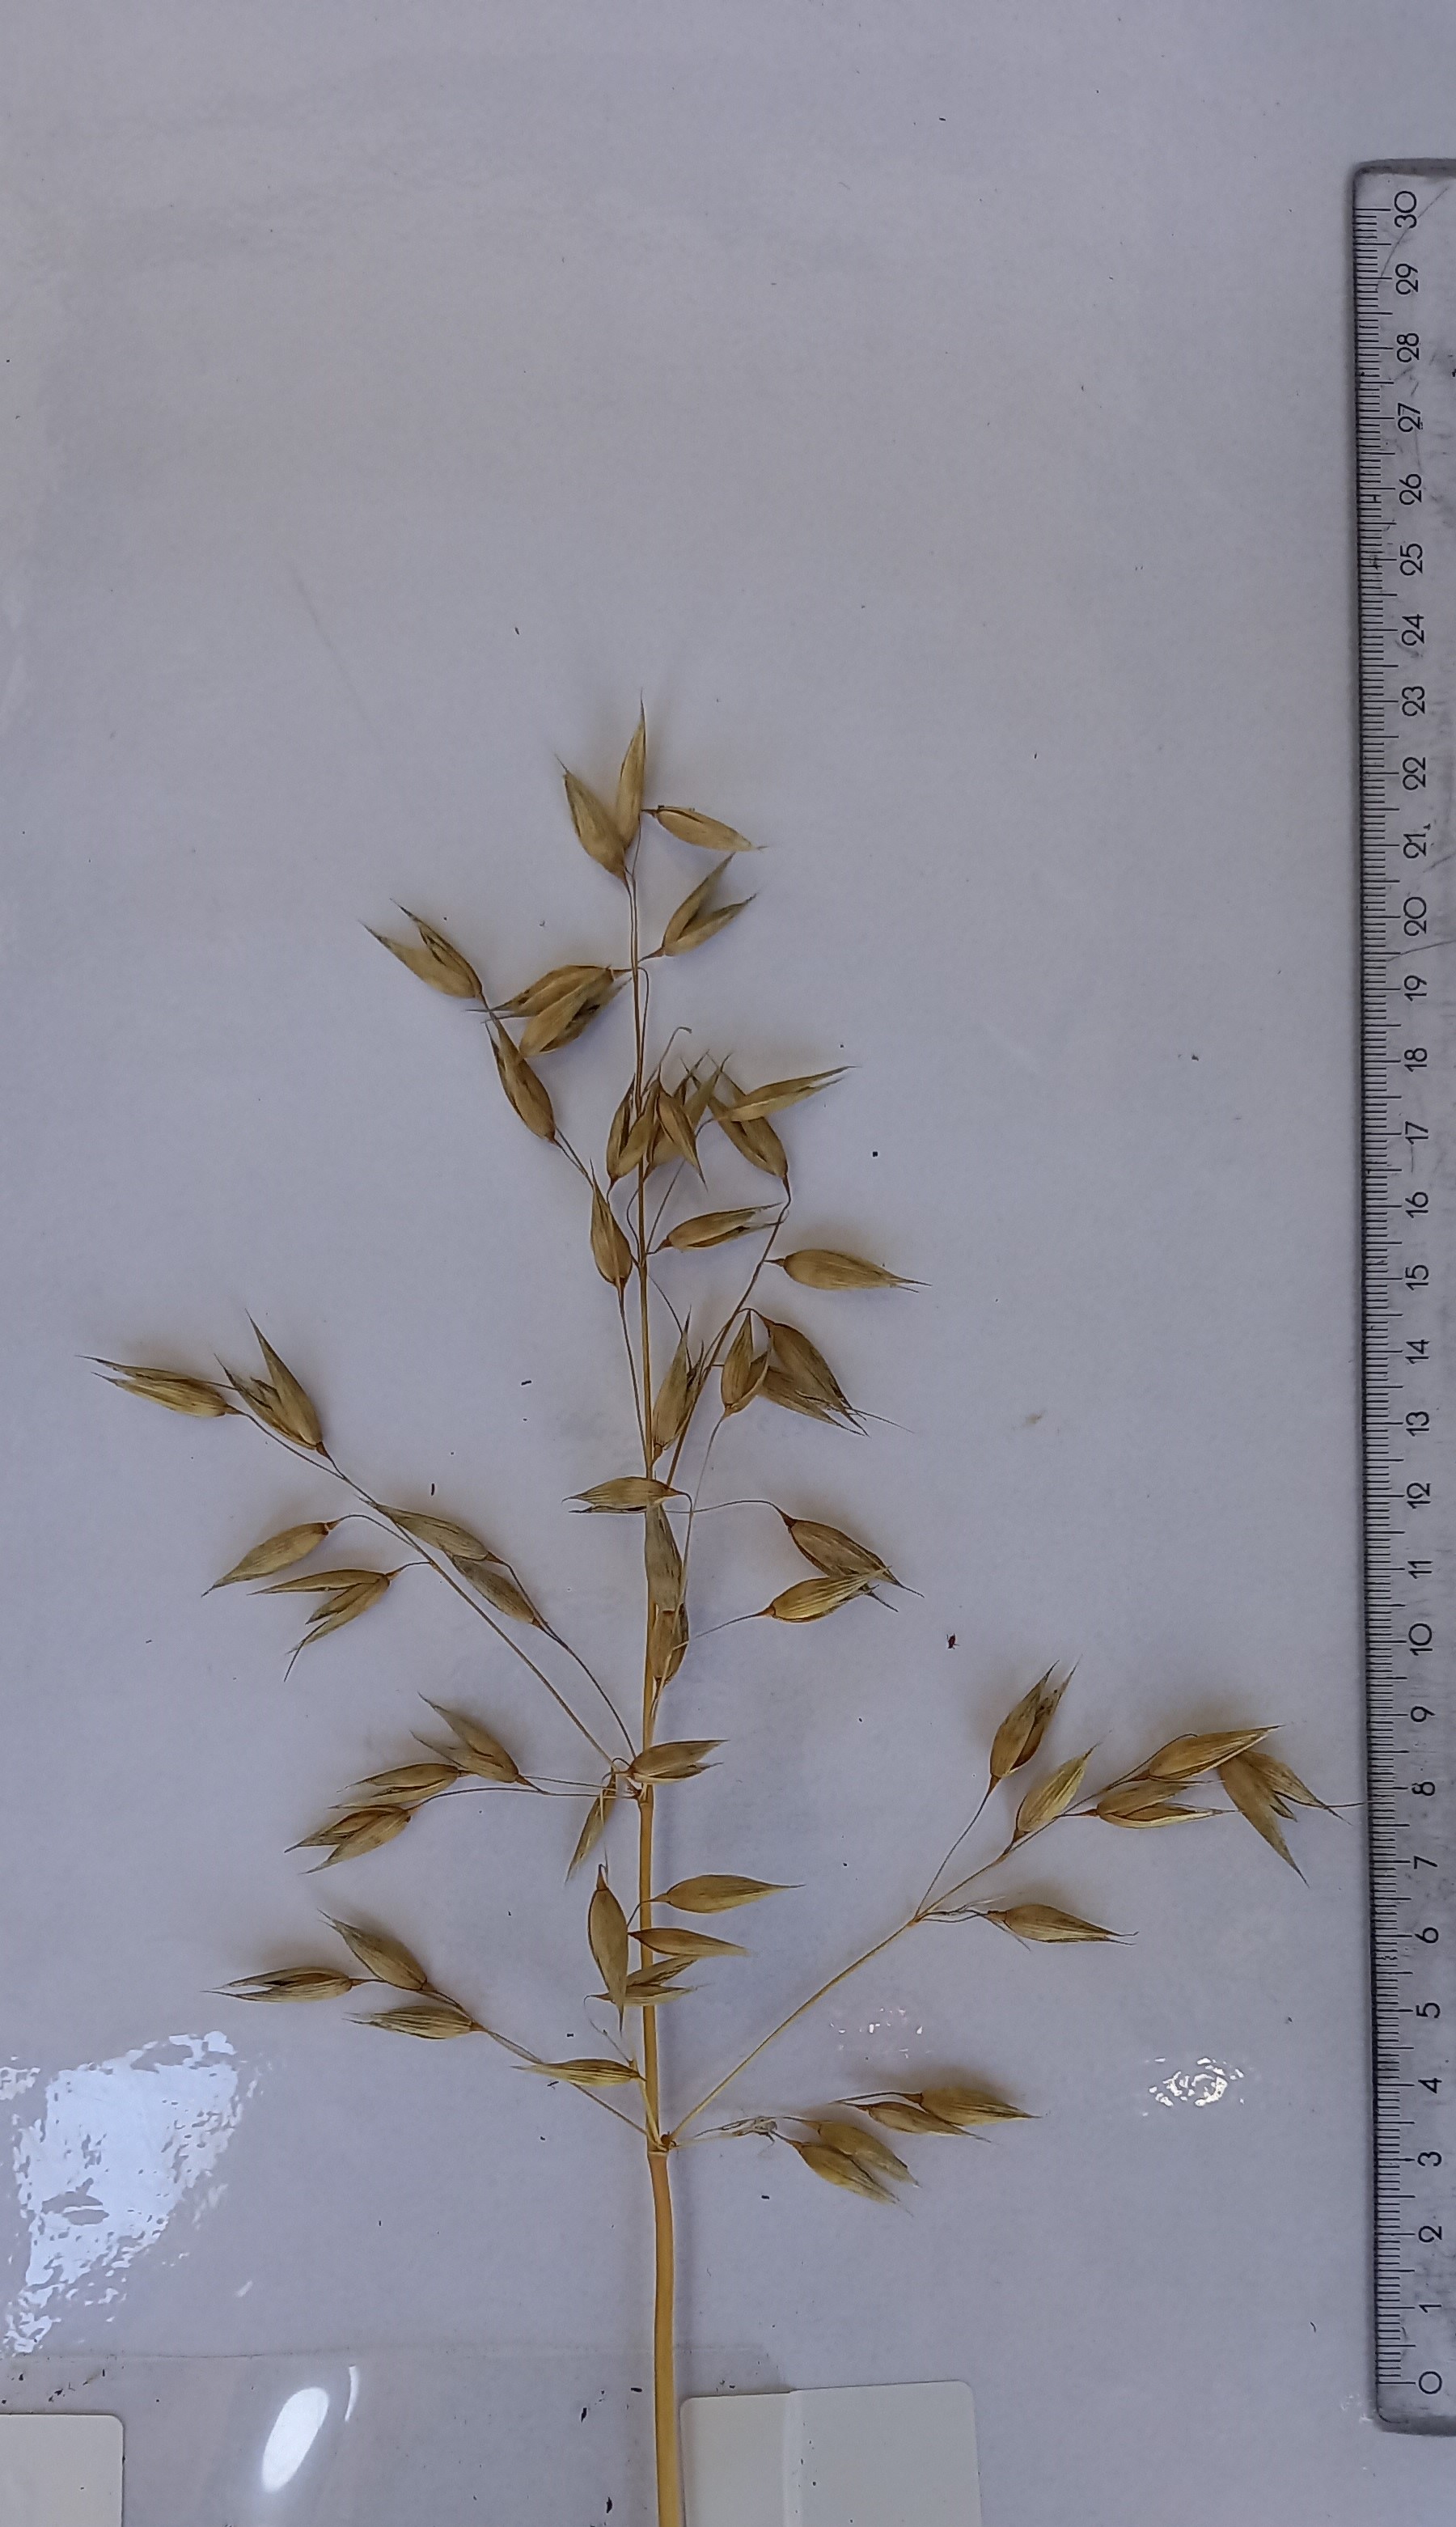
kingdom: Plantae
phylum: Tracheophyta
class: Liliopsida
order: Poales
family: Poaceae
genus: Avena
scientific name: Avena sativa
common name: Oat
